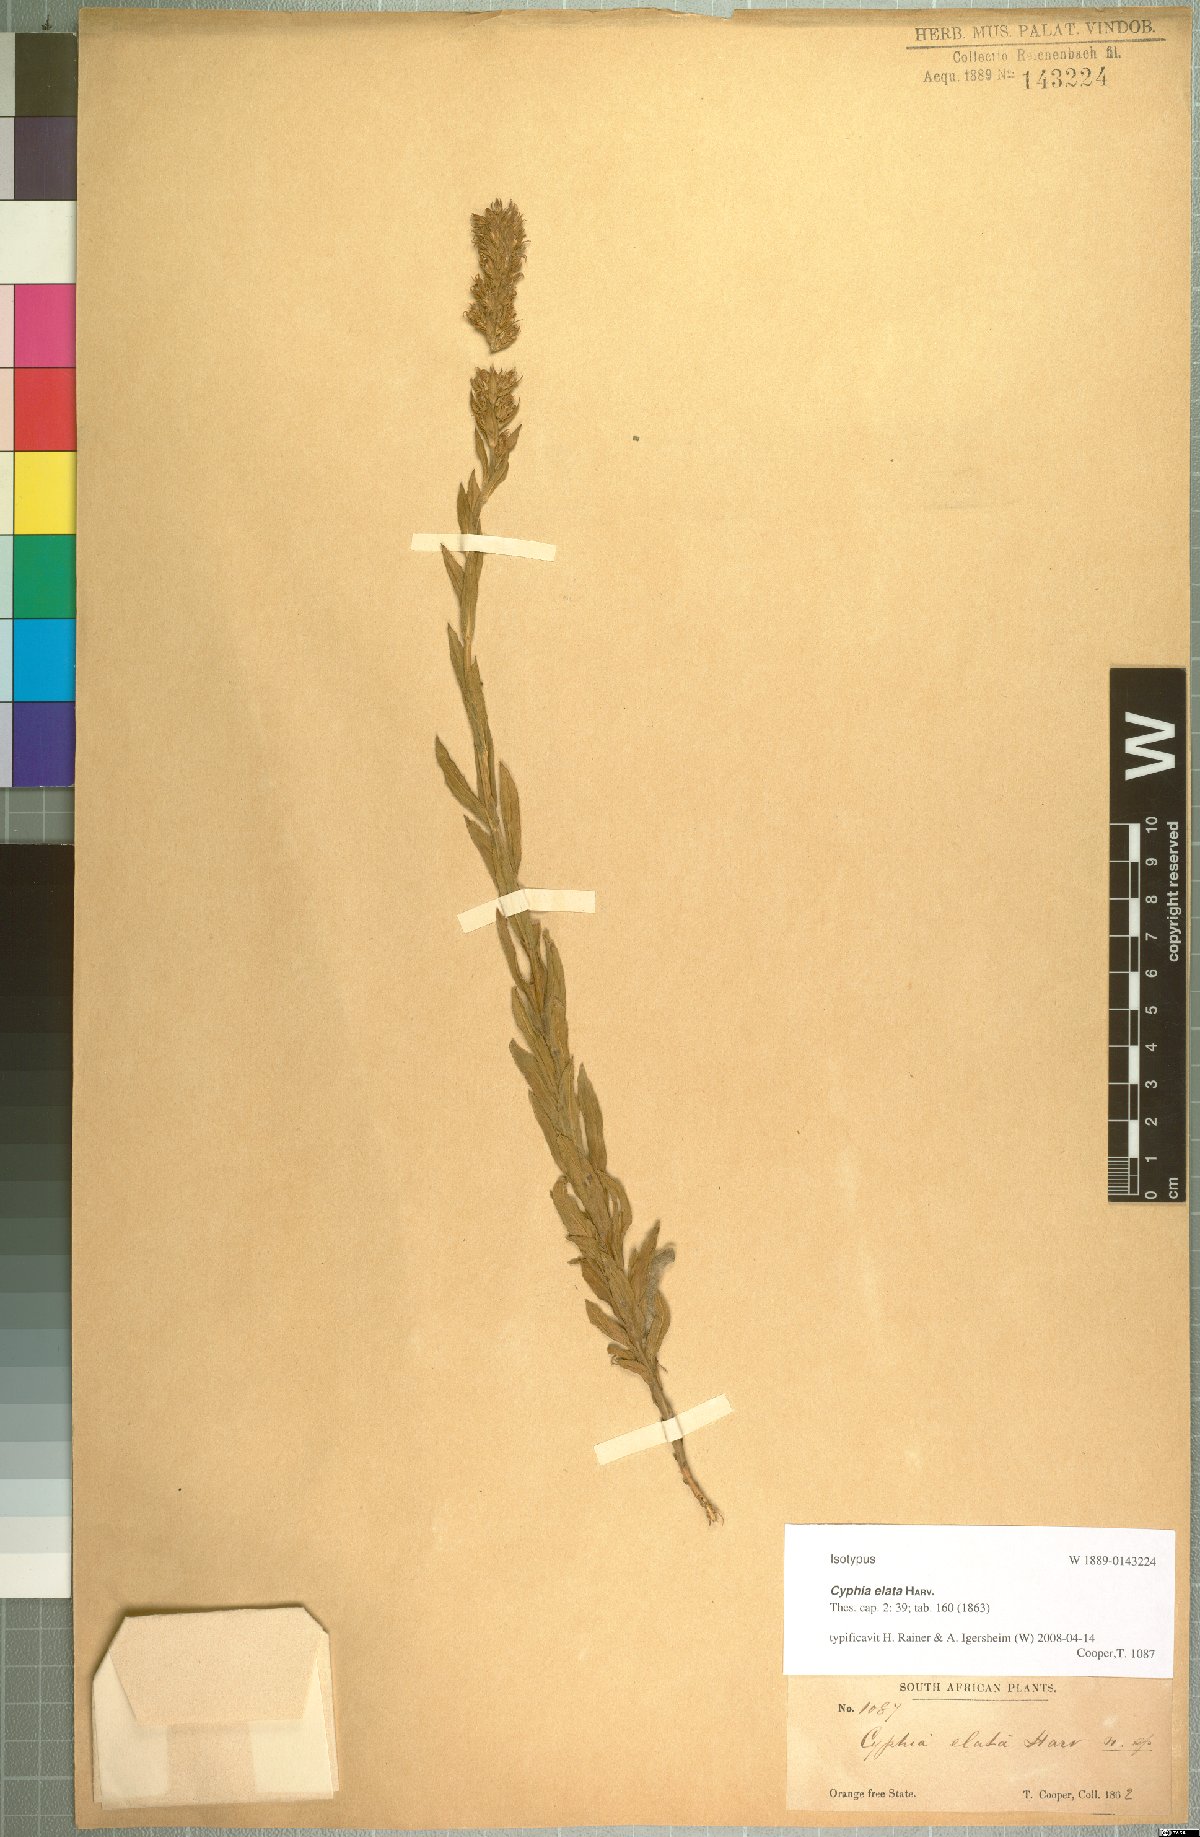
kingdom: Plantae
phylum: Tracheophyta
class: Magnoliopsida
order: Asterales
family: Campanulaceae
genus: Cyphia
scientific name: Cyphia elata
